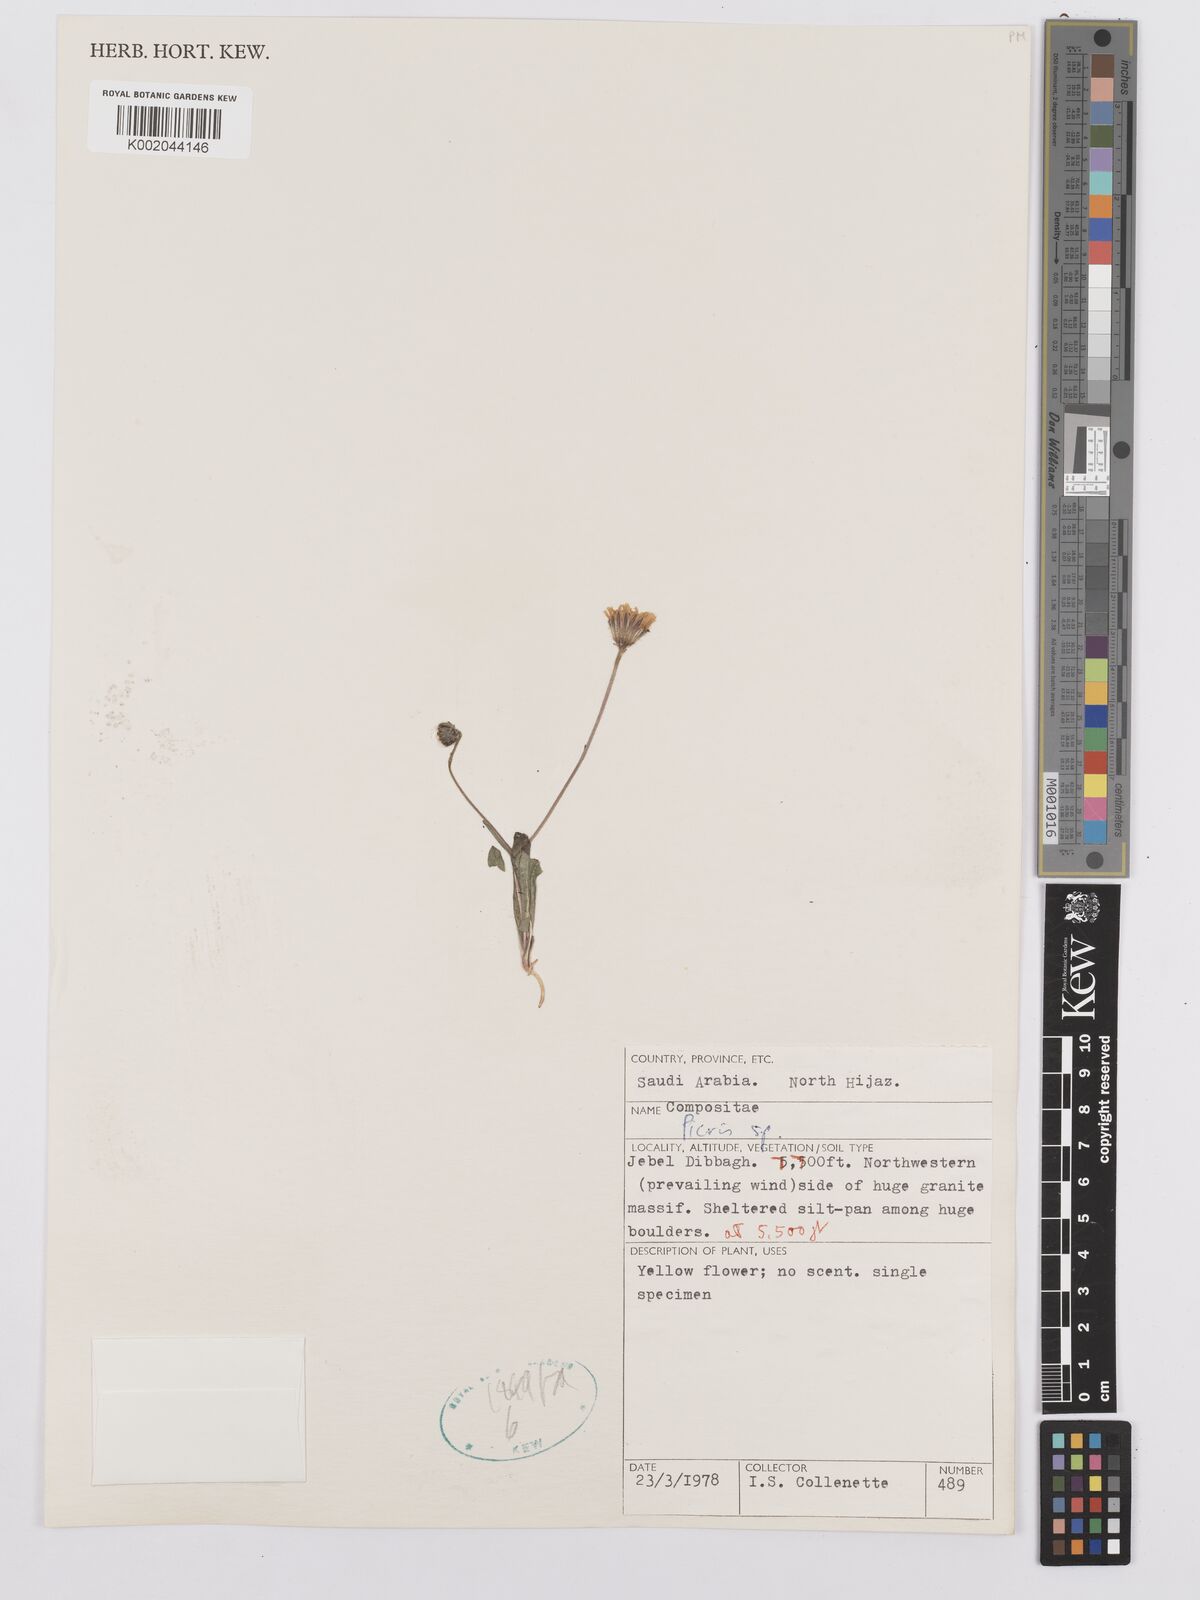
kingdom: Plantae
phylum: Tracheophyta
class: Magnoliopsida
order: Asterales
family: Asteraceae
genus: Picris
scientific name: Picris
